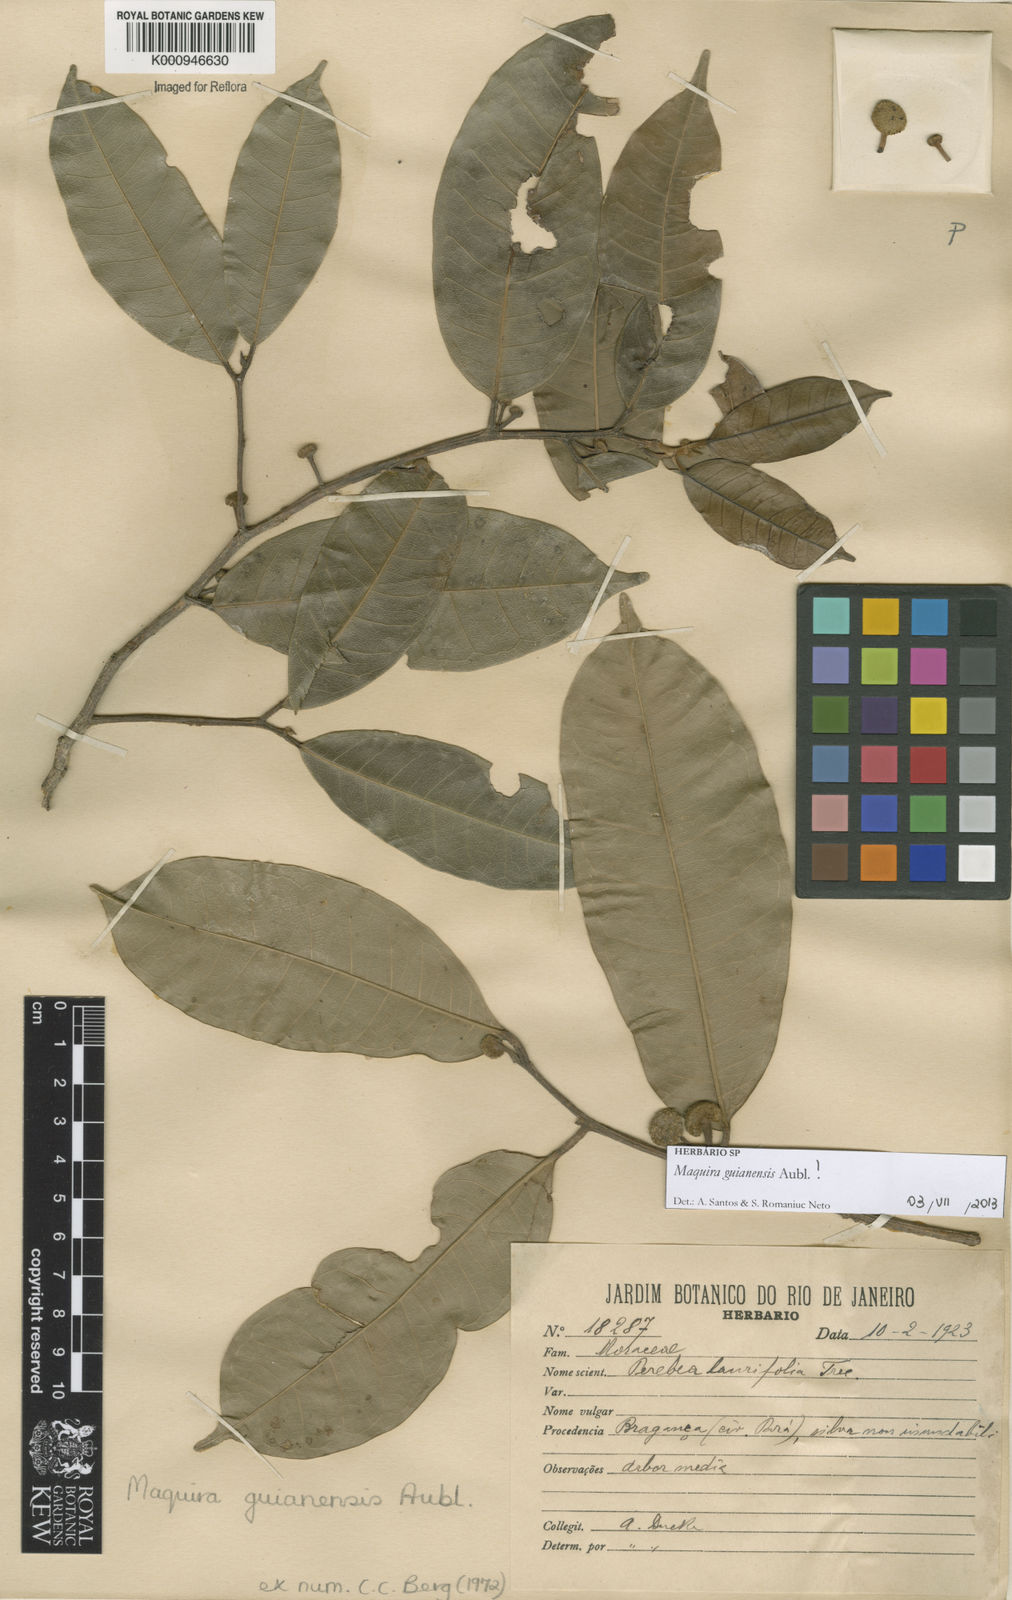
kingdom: Plantae
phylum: Tracheophyta
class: Magnoliopsida
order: Rosales
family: Moraceae
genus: Maquira
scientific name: Maquira guianensis
